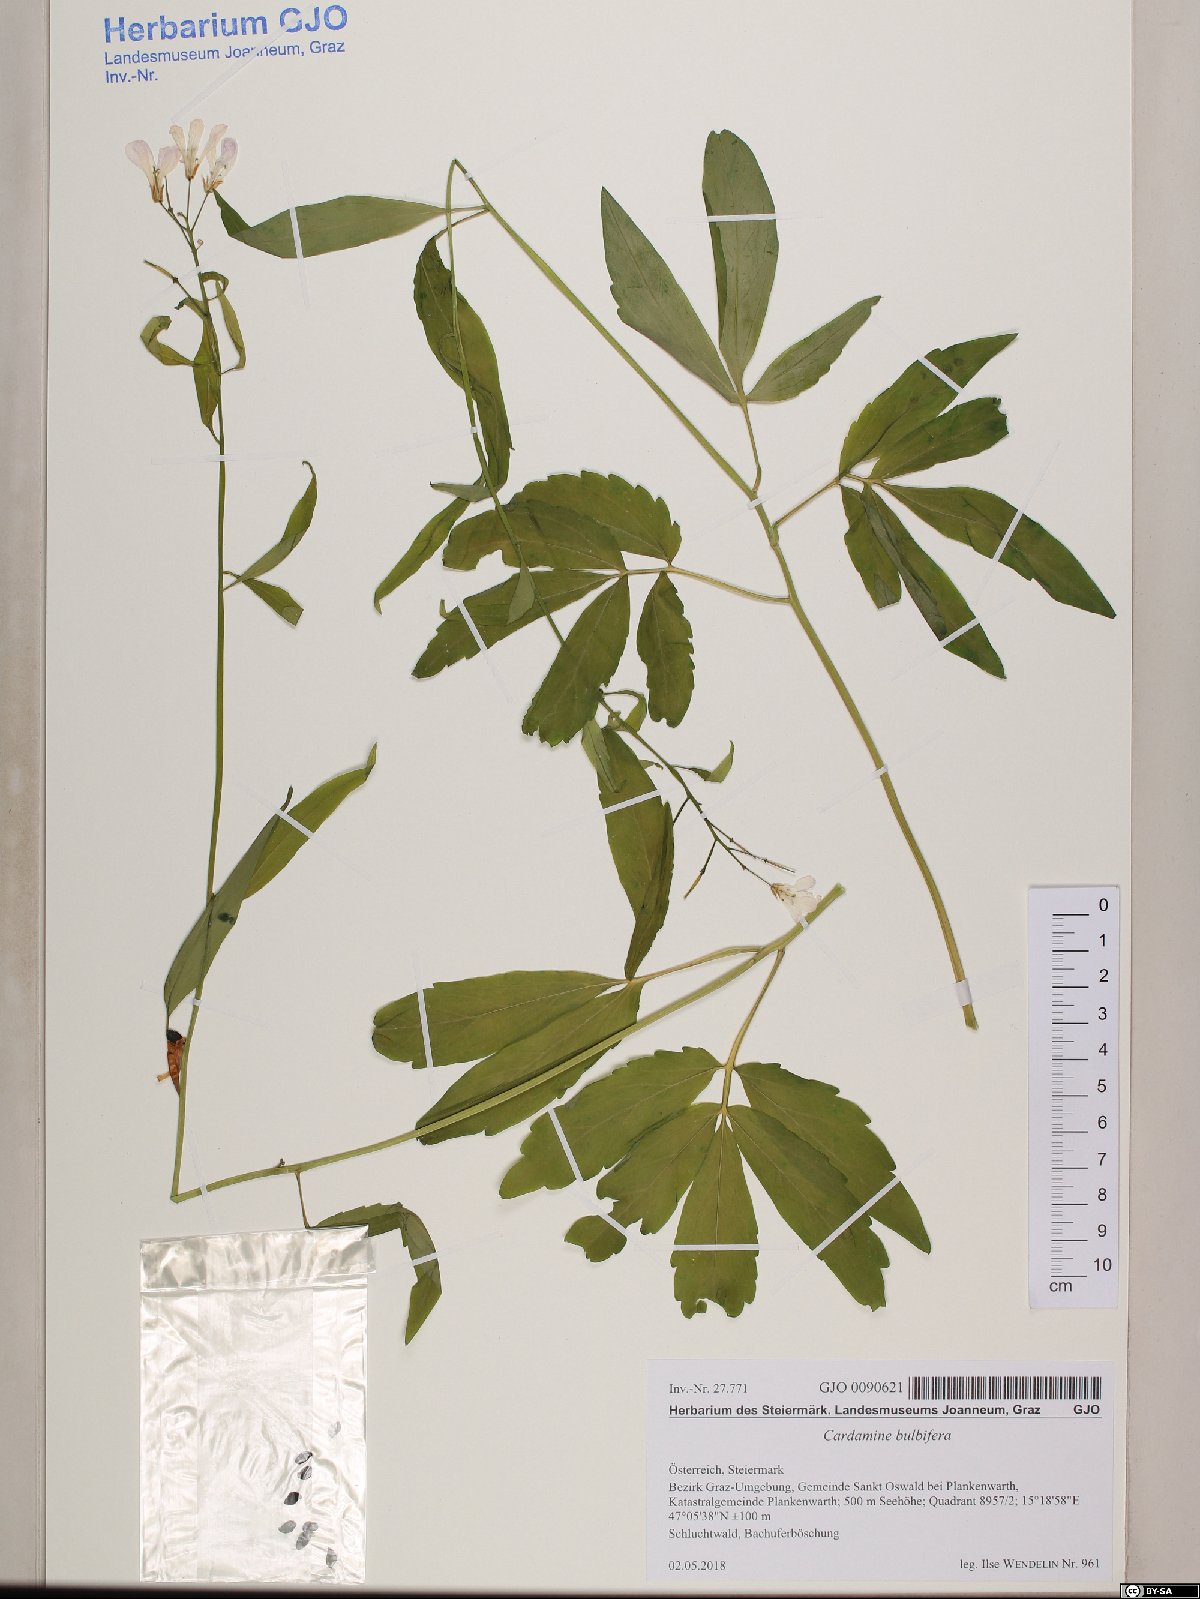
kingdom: Plantae
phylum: Tracheophyta
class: Magnoliopsida
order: Brassicales
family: Brassicaceae
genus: Cardamine
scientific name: Cardamine bulbifera
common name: Coralroot bittercress
